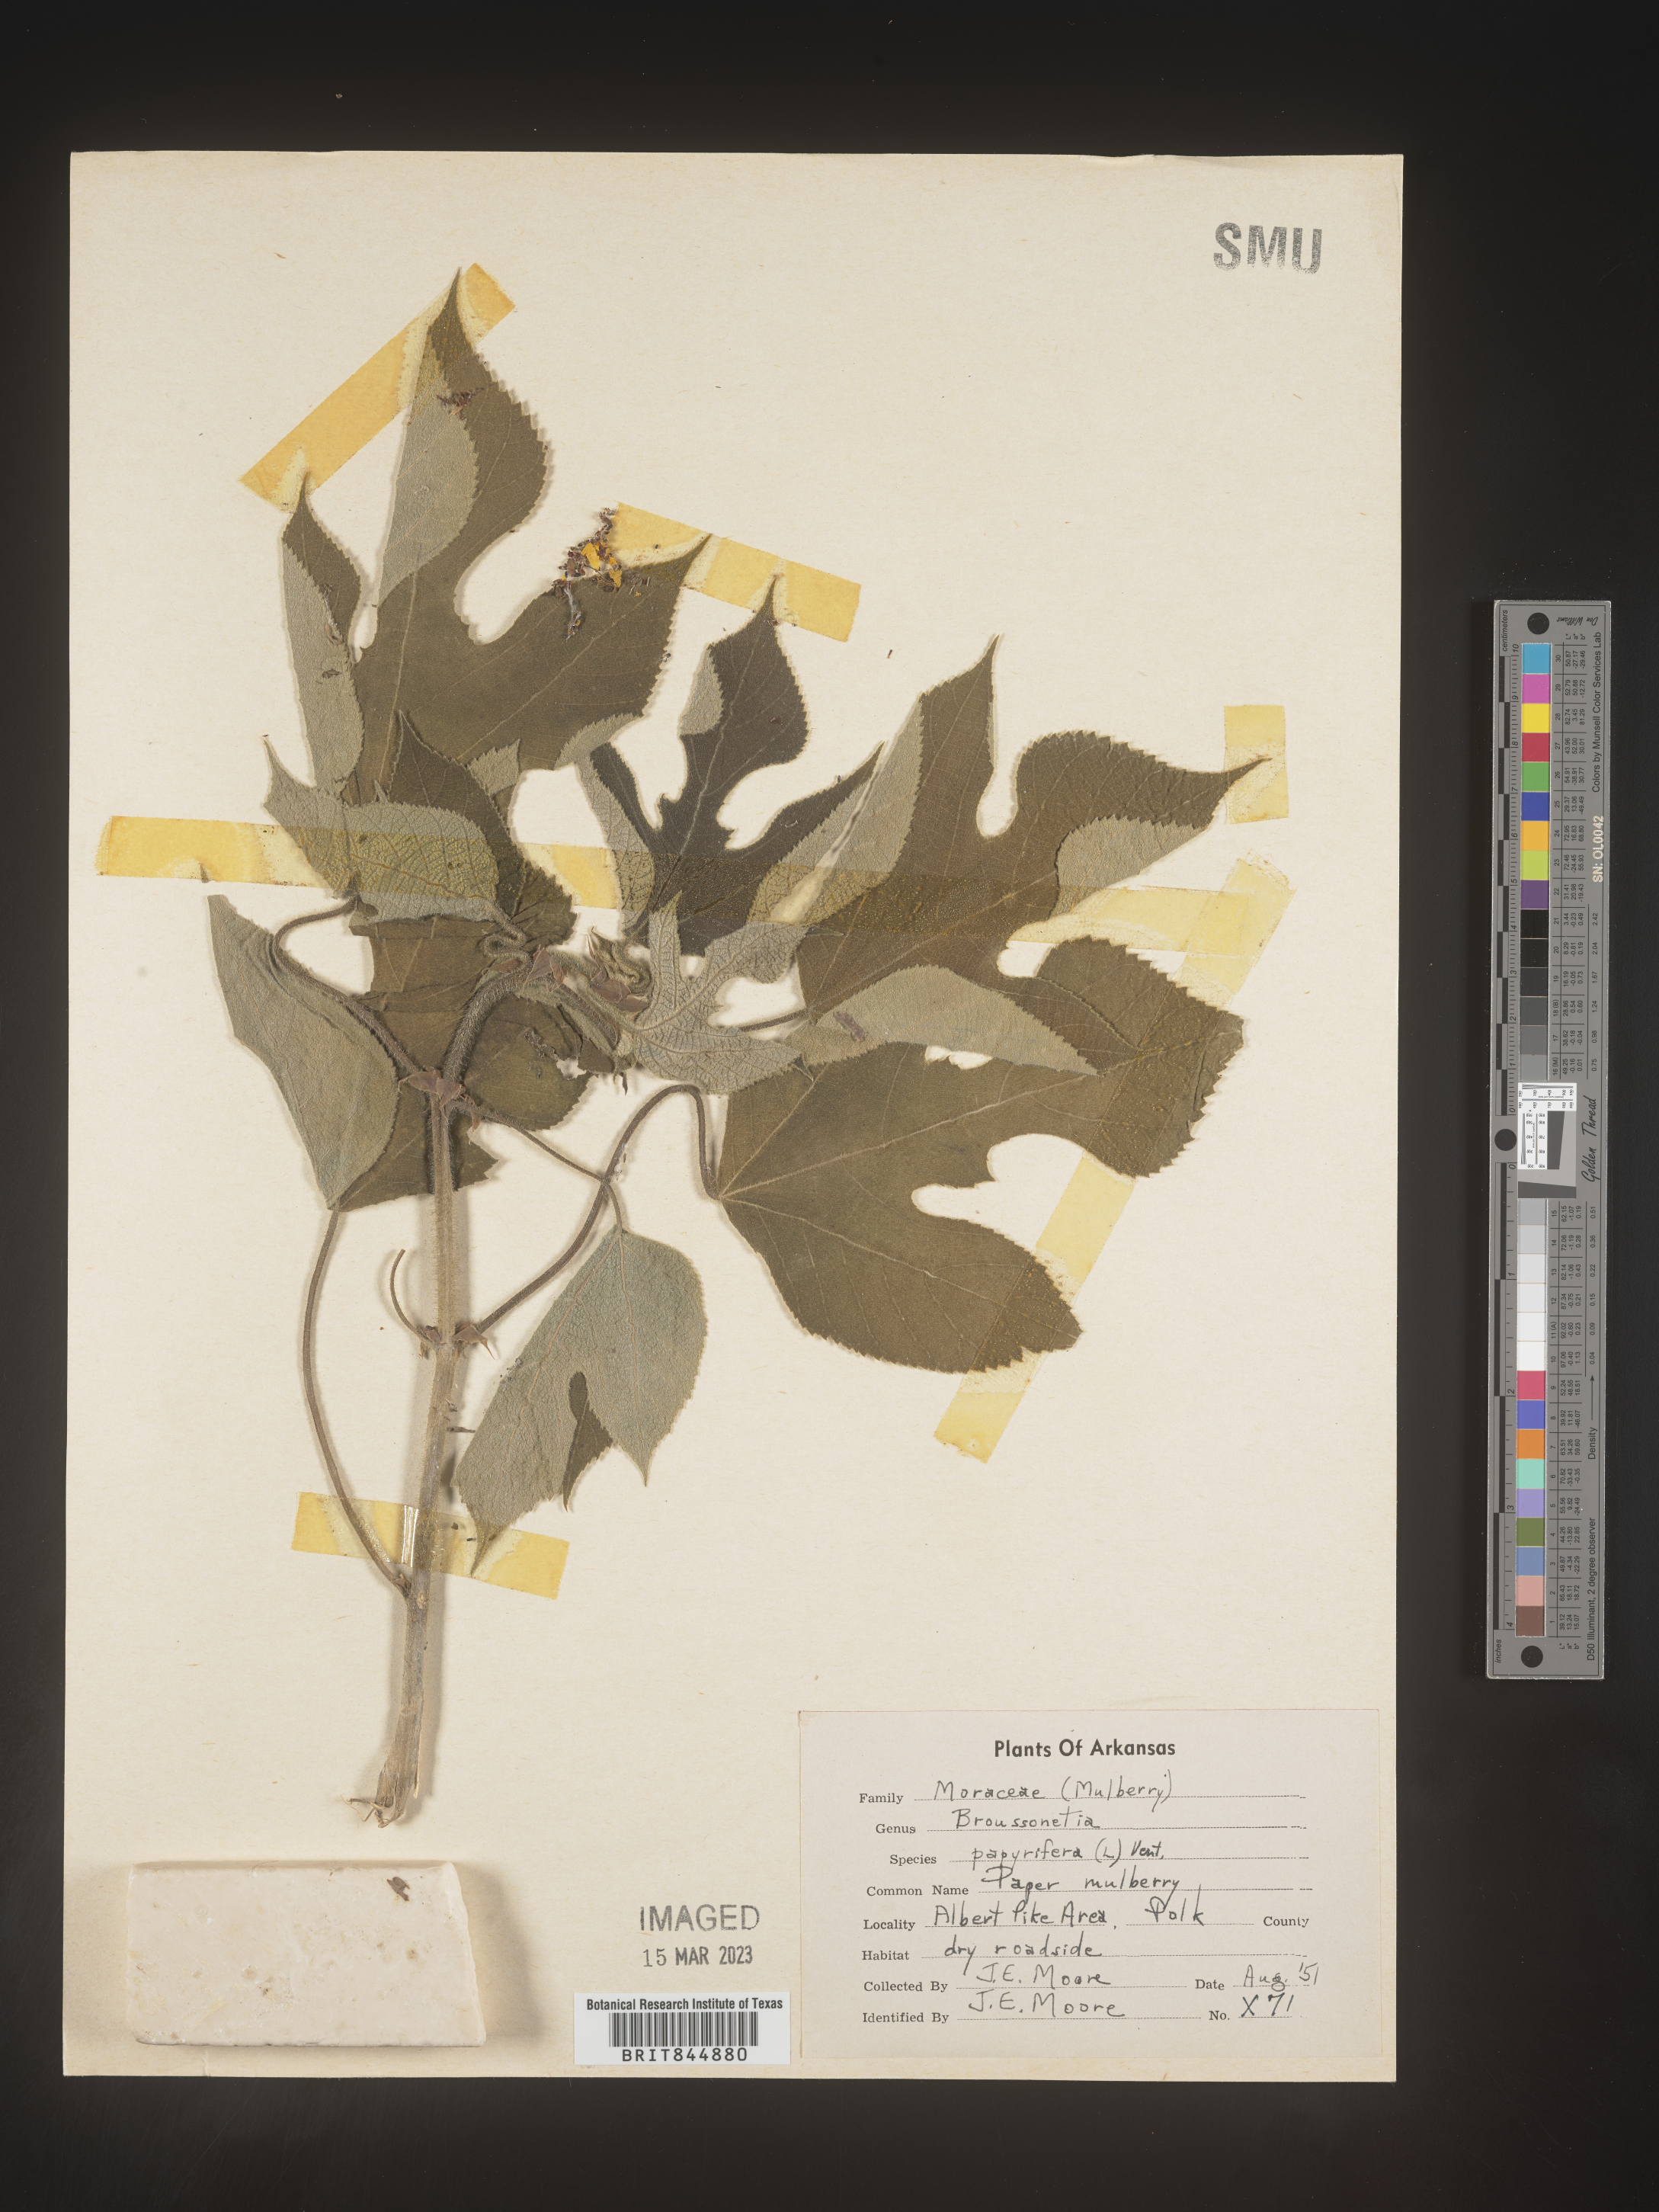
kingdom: Plantae
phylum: Tracheophyta
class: Magnoliopsida
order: Rosales
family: Moraceae
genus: Broussonetia
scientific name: Broussonetia
